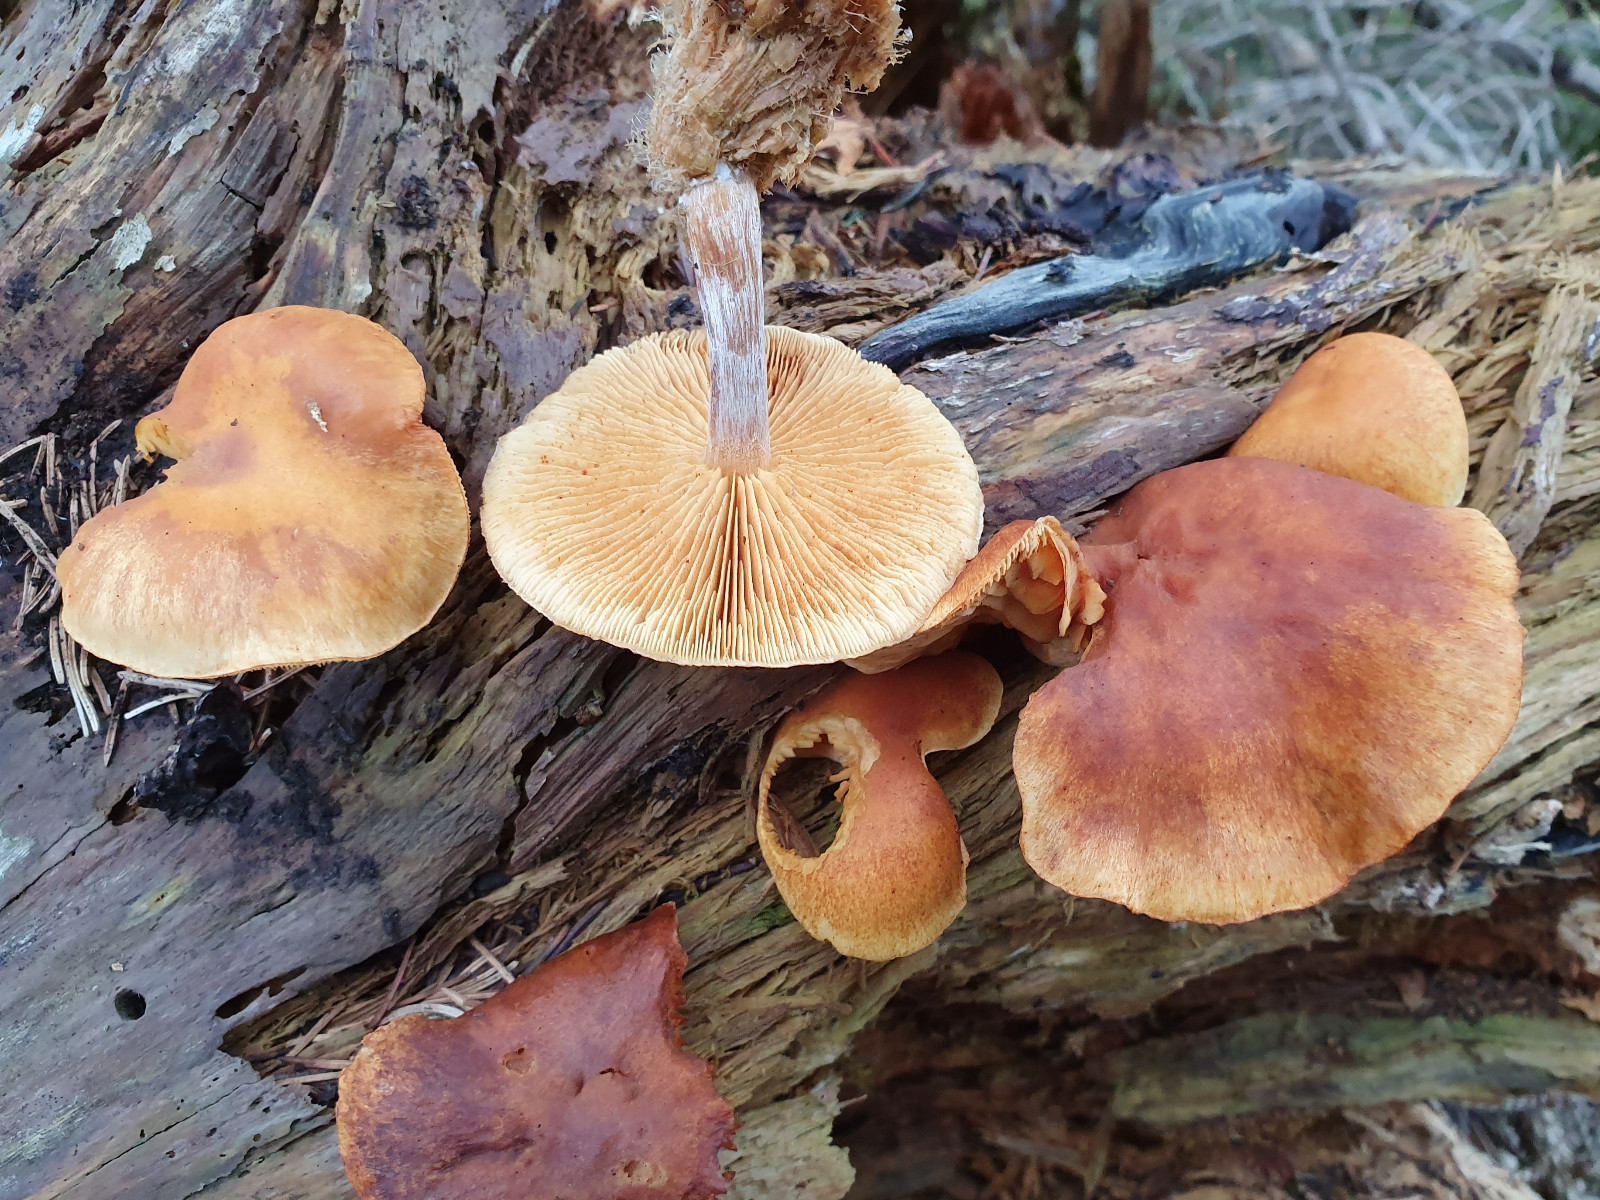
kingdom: Fungi
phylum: Basidiomycota
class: Agaricomycetes
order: Agaricales
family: Hymenogastraceae
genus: Gymnopilus
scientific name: Gymnopilus penetrans
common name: plettet flammehat
